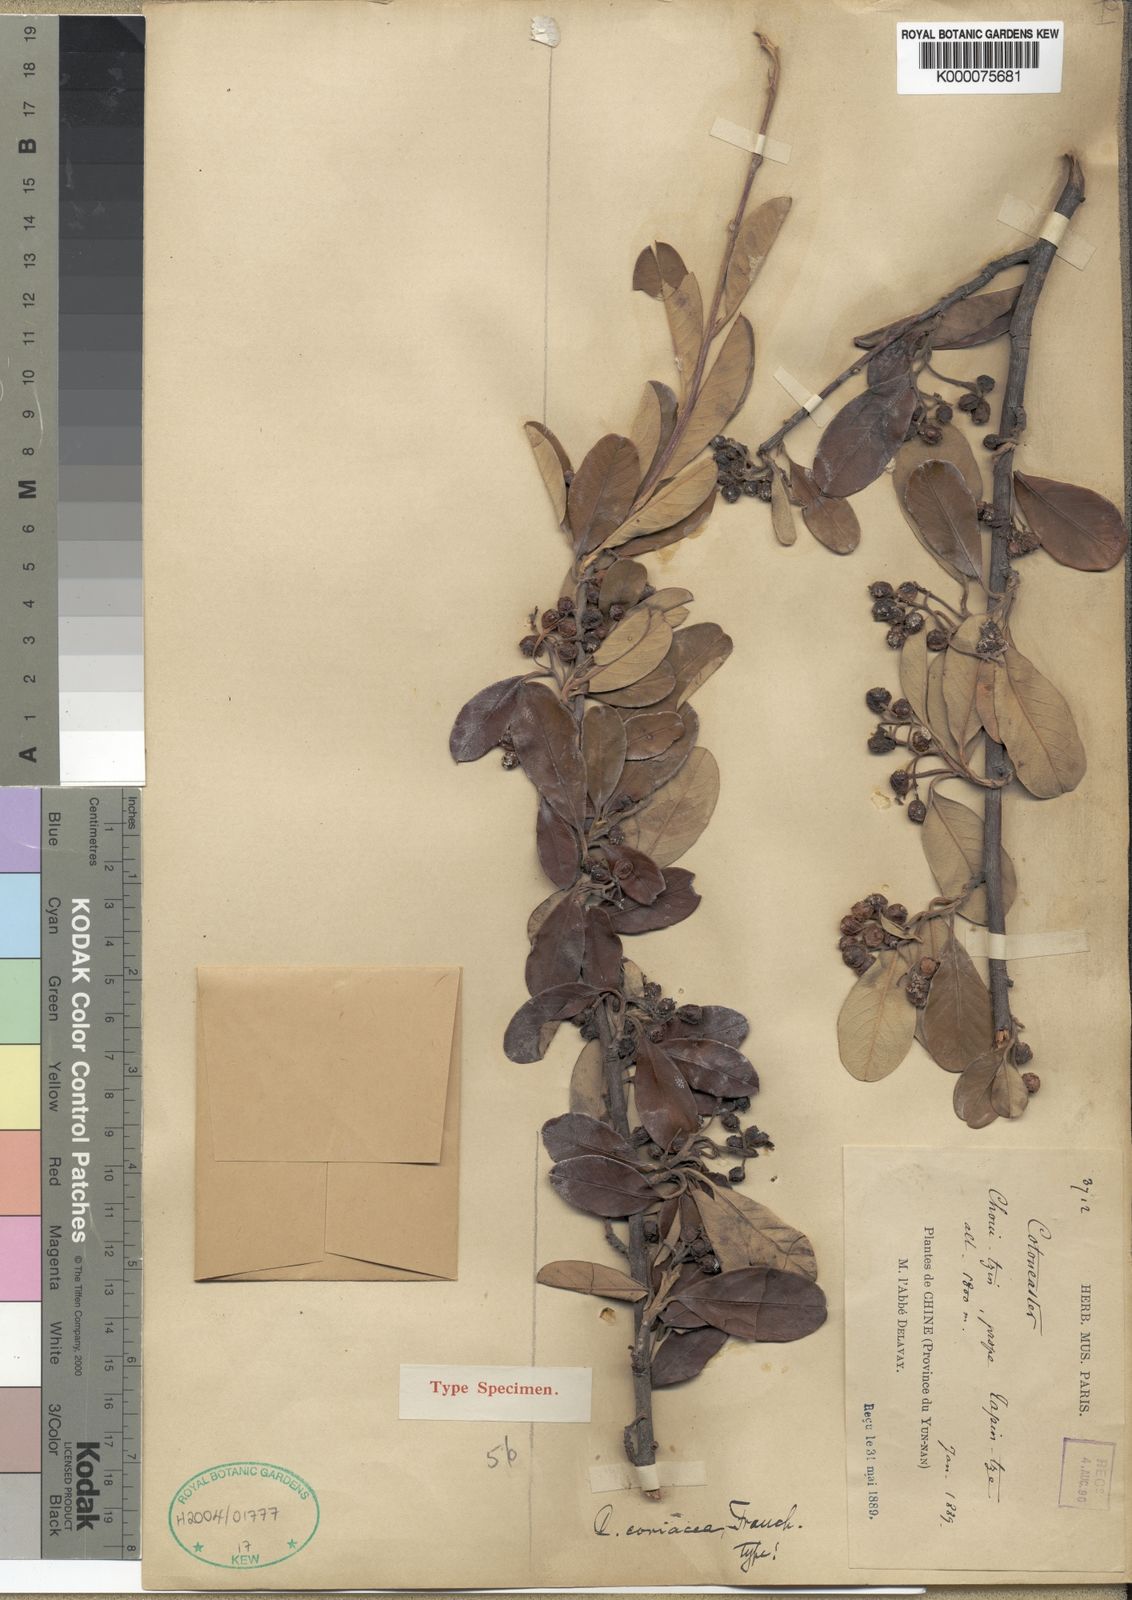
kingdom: Plantae
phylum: Tracheophyta
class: Magnoliopsida
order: Rosales
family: Rosaceae
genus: Cotoneaster
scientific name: Cotoneaster coriaceus
